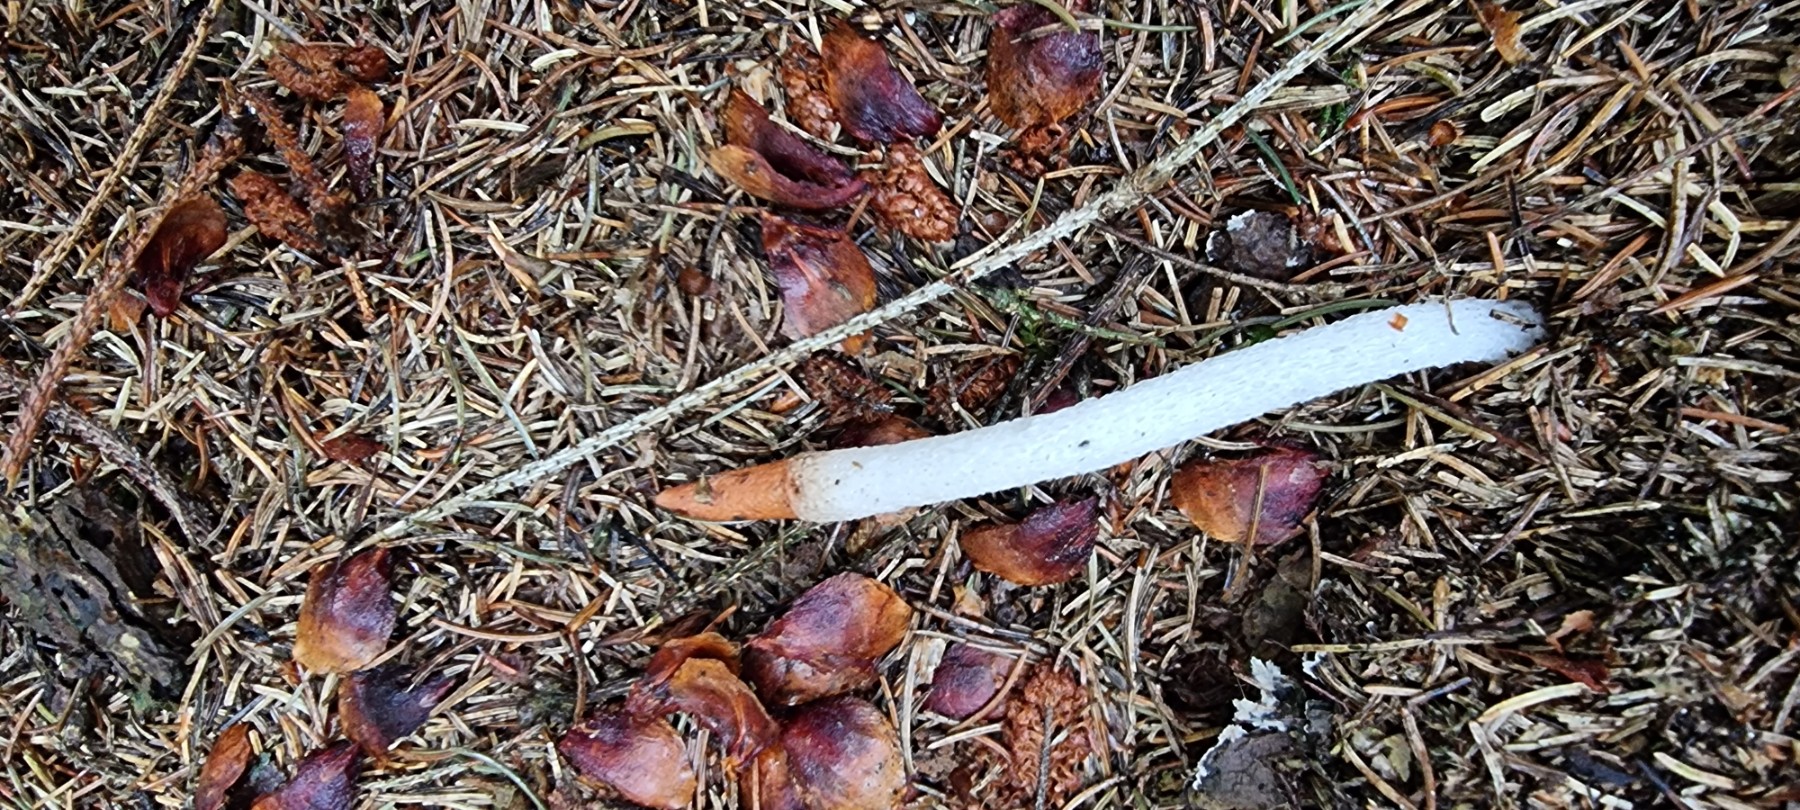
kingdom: Fungi
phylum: Basidiomycota
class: Agaricomycetes
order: Phallales
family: Phallaceae
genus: Mutinus
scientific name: Mutinus caninus
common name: hunde-stinksvamp
